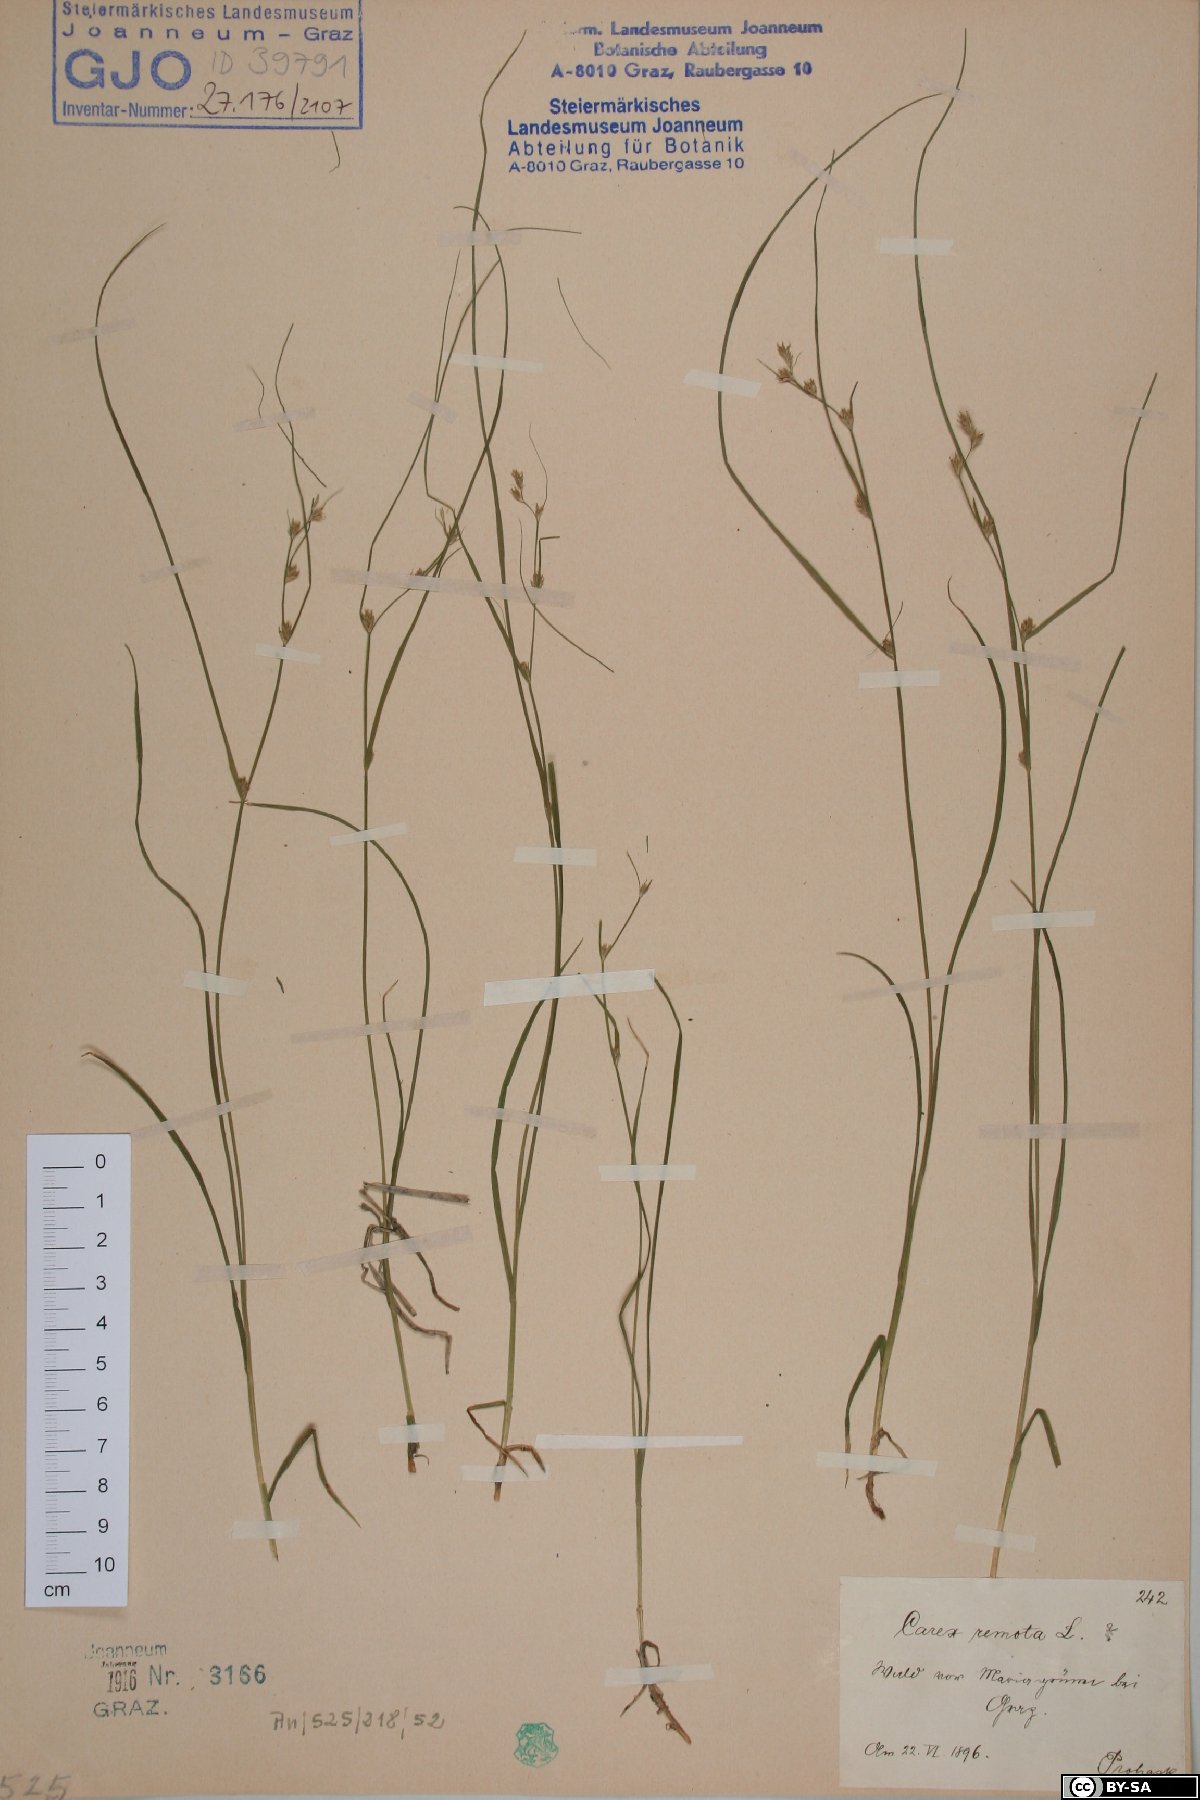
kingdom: Plantae
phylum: Tracheophyta
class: Liliopsida
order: Poales
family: Cyperaceae
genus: Carex
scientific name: Carex remota
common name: Remote sedge
